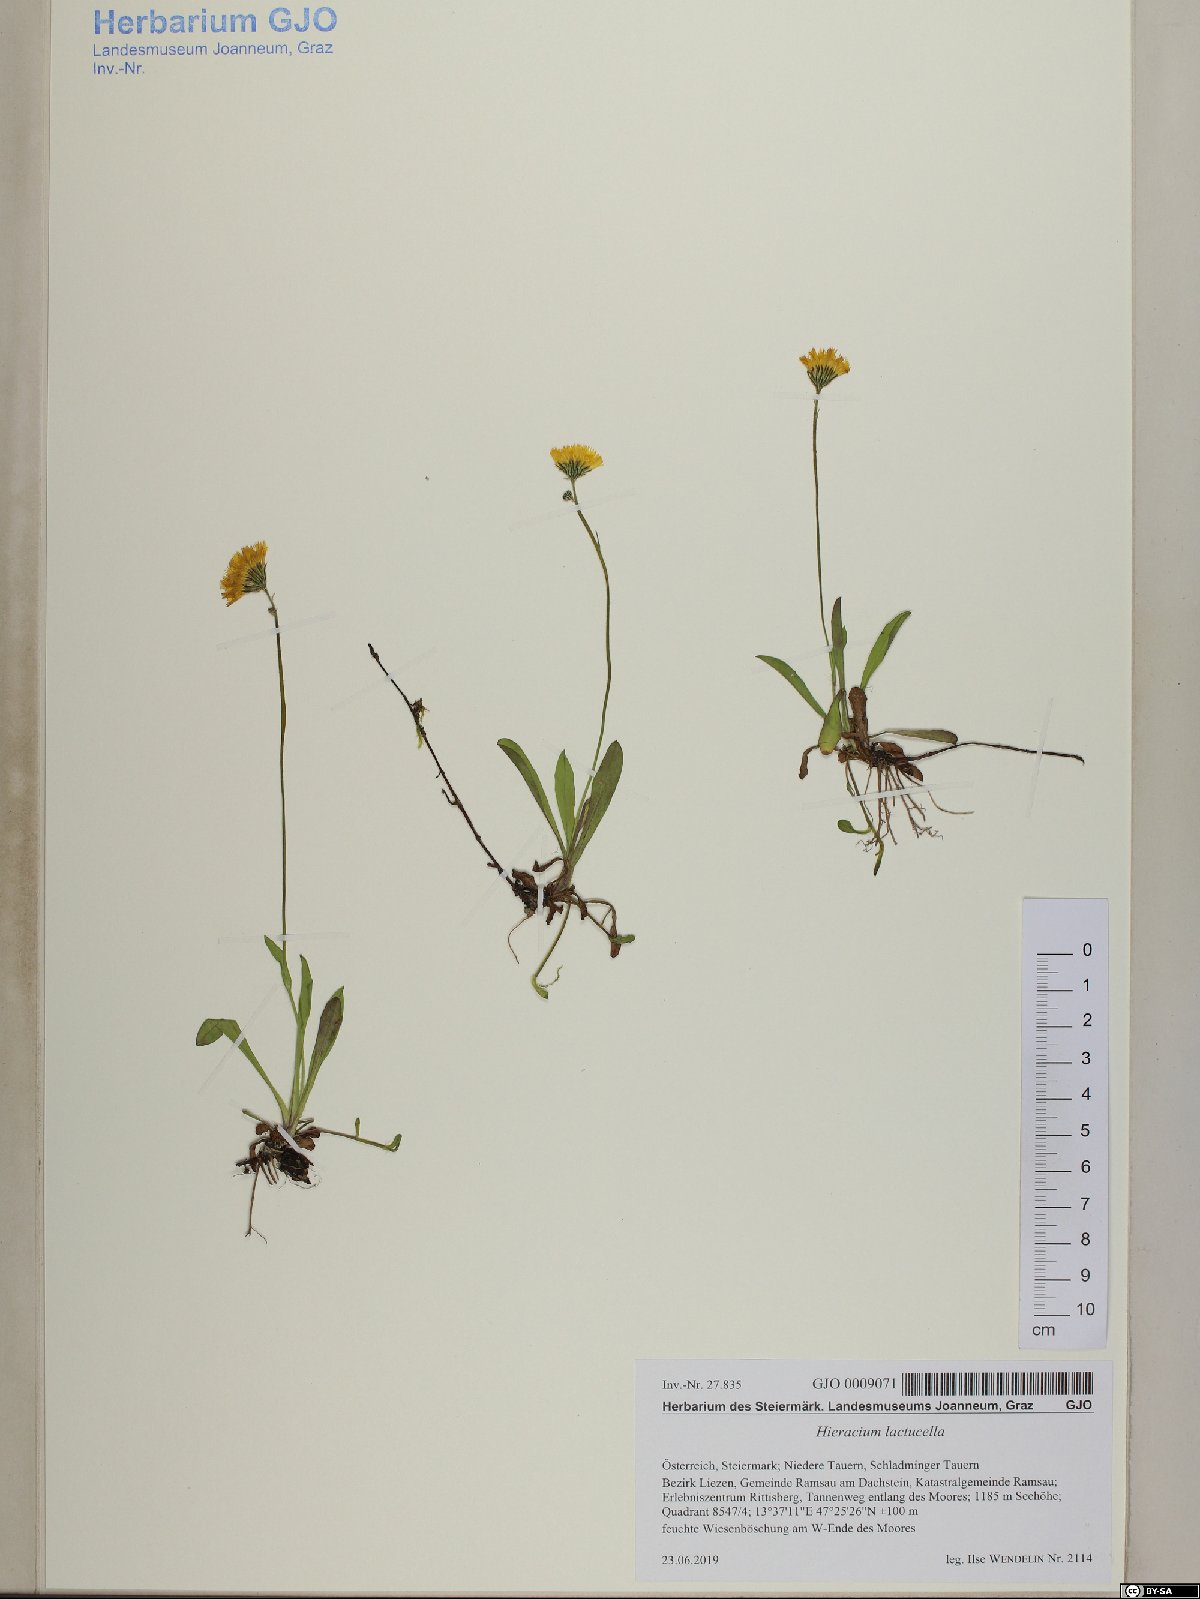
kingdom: Plantae
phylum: Tracheophyta
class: Polypodiopsida
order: Polypodiales
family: Dryopteridaceae
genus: Dryopteris
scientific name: Dryopteris carthusiana
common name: Narrow buckler-fern
